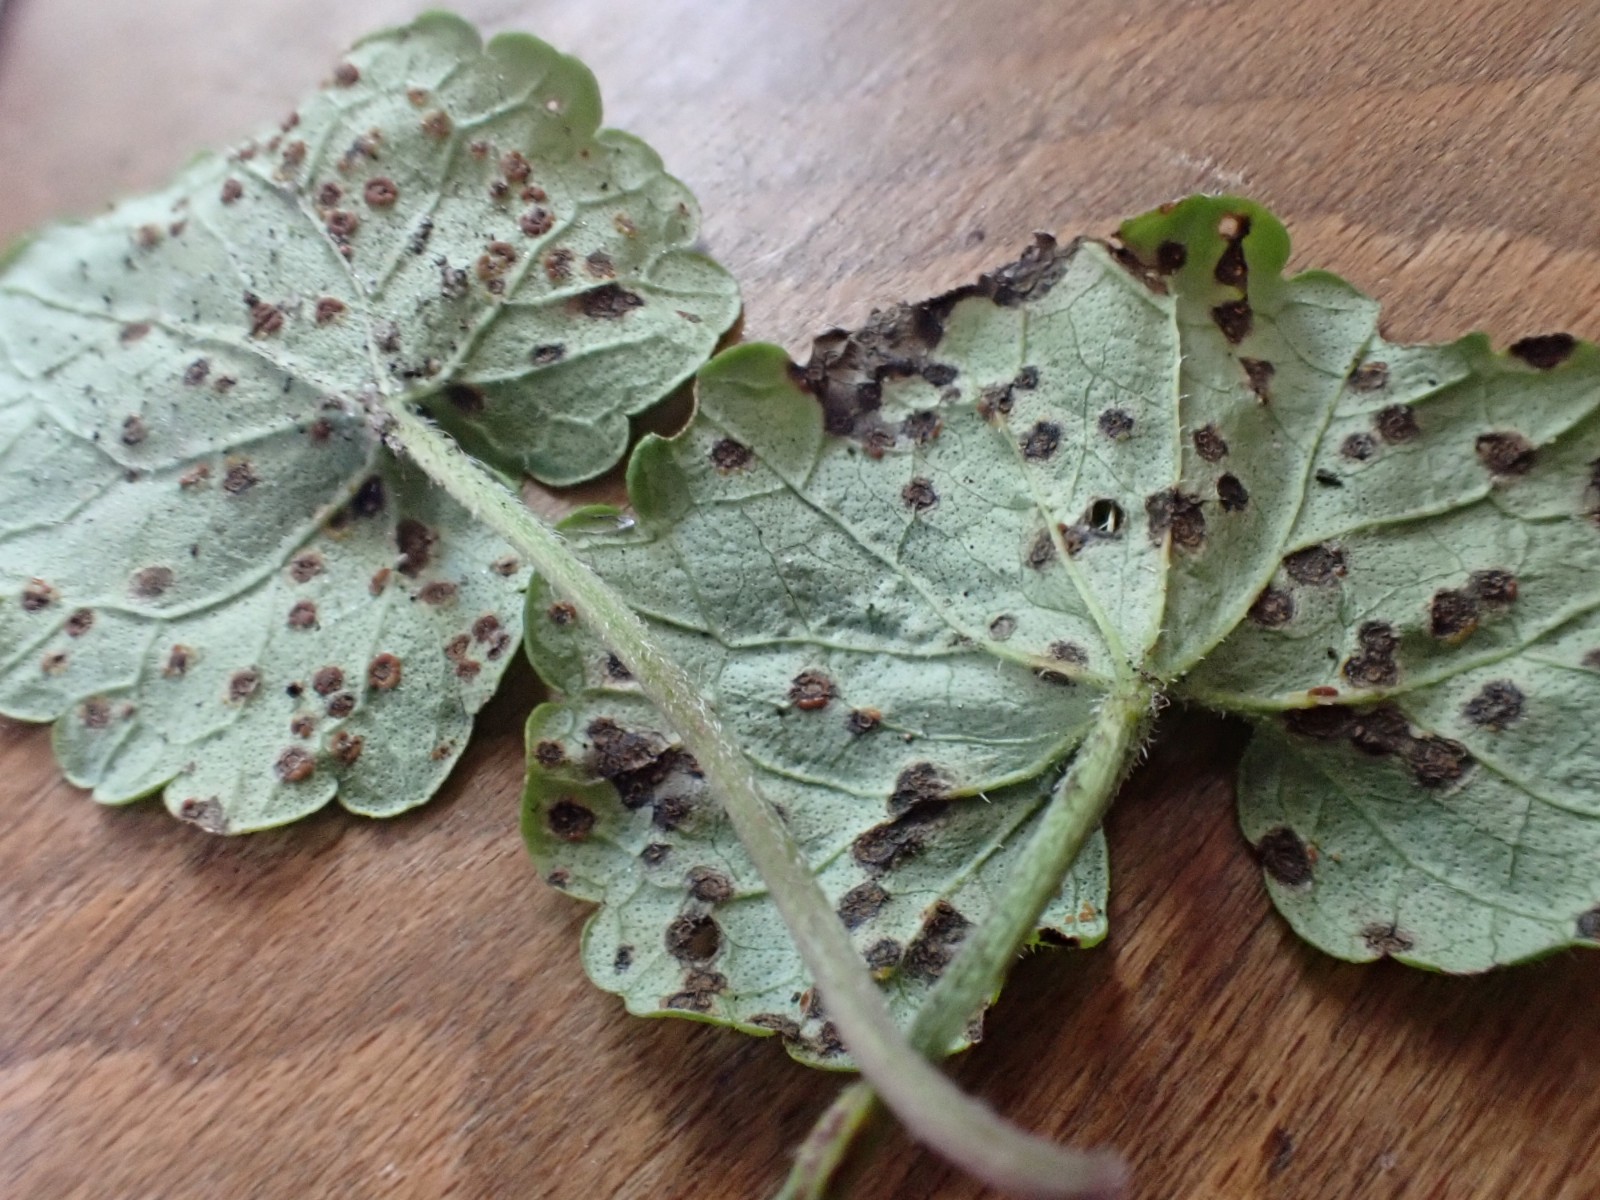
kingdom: Fungi
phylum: Basidiomycota
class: Pucciniomycetes
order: Pucciniales
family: Pucciniaceae
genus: Puccinia
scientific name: Puccinia glechomatis
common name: Ground ivy rust
